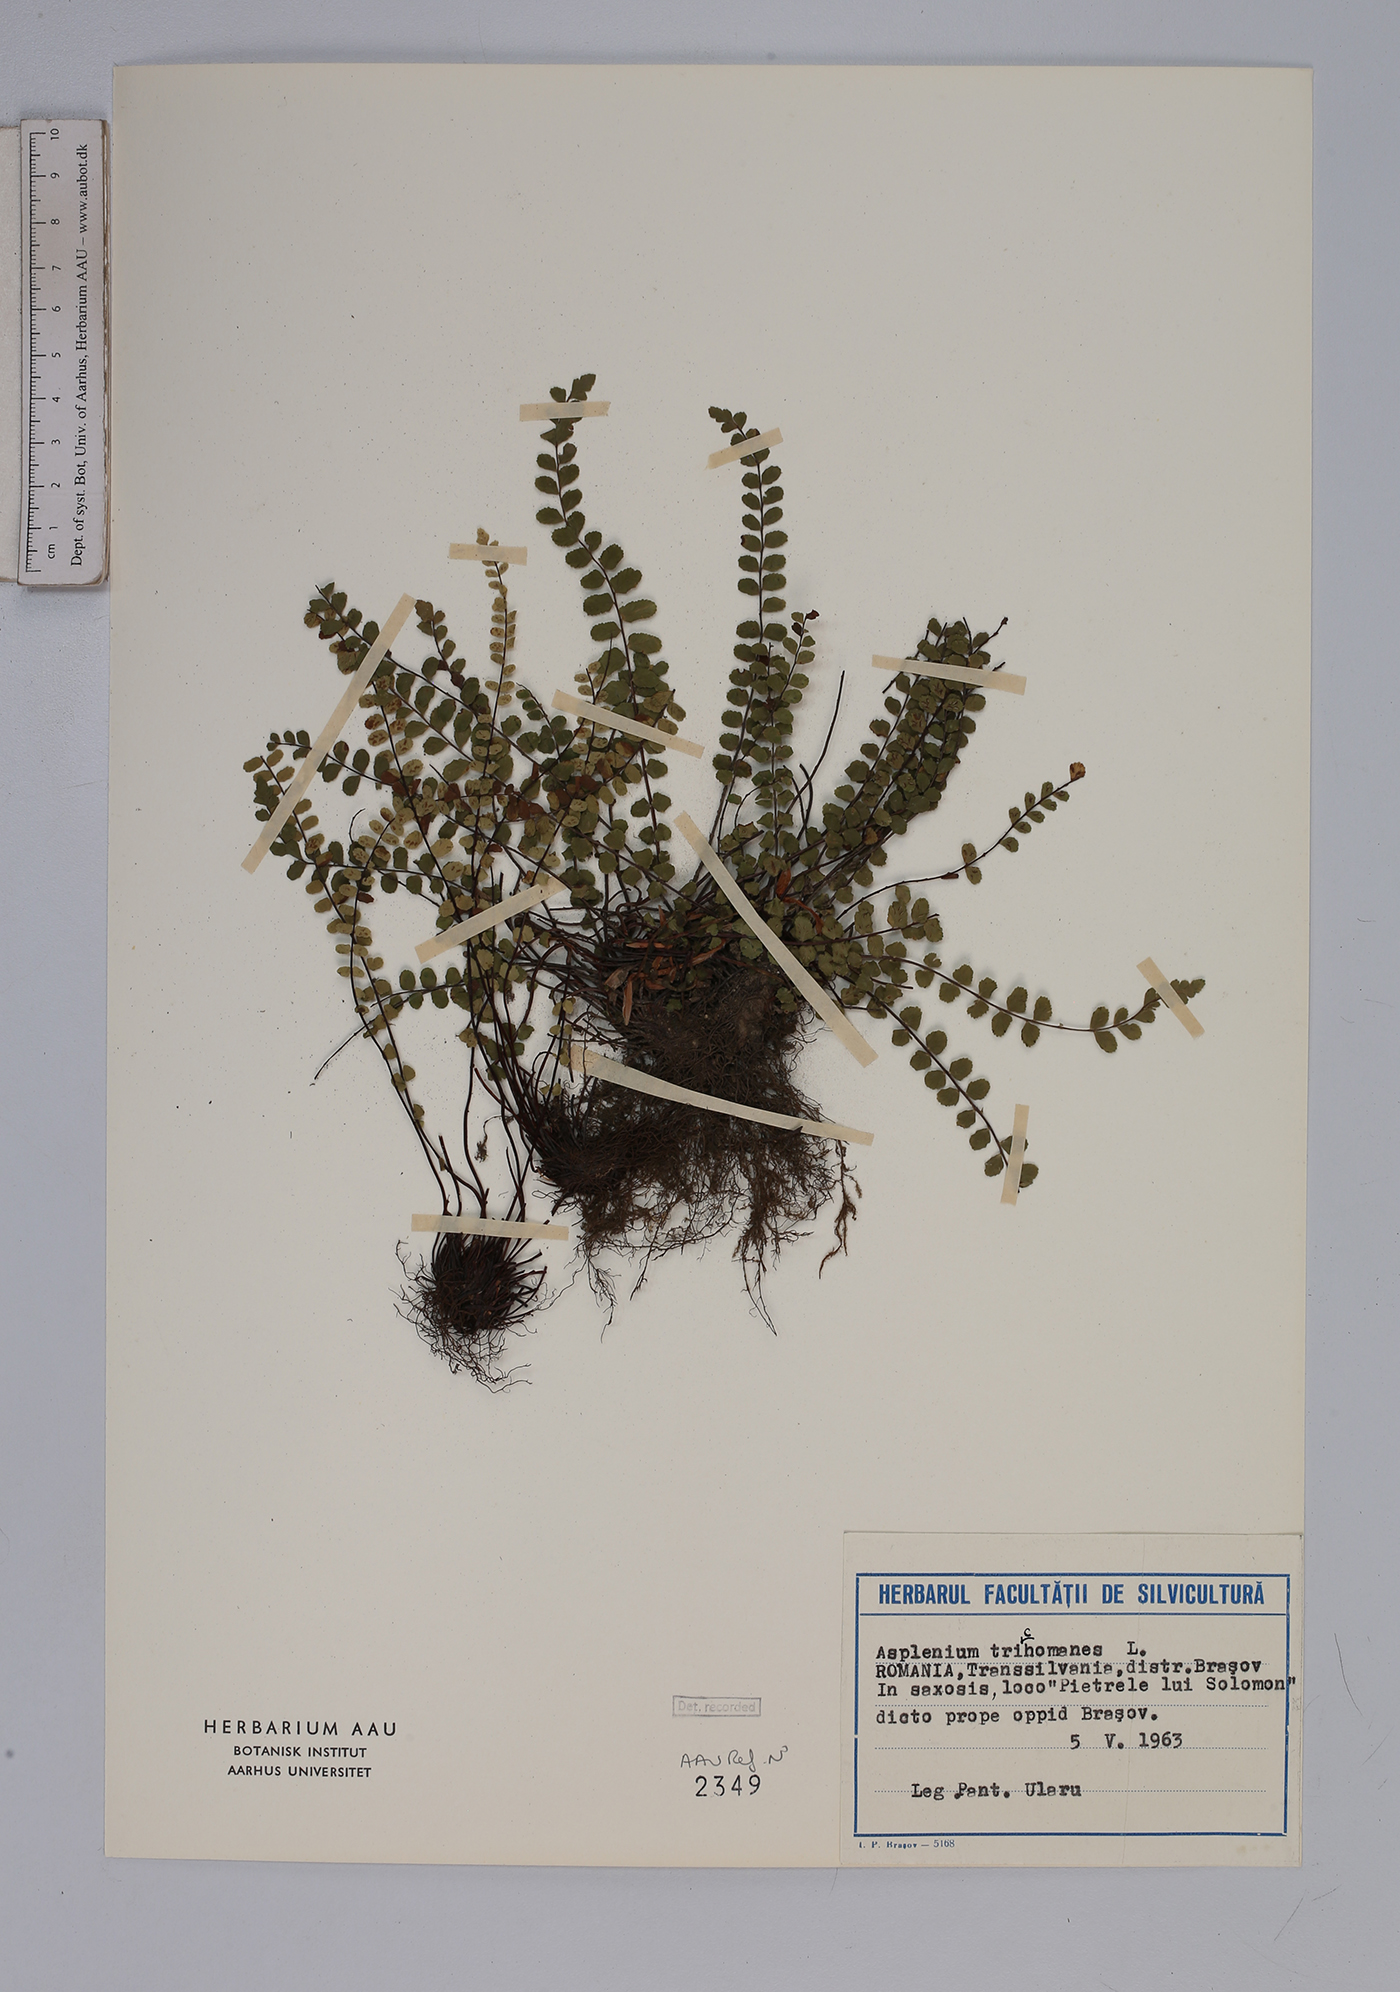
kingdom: Plantae
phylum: Tracheophyta
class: Polypodiopsida
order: Polypodiales
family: Aspleniaceae
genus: Asplenium
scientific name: Asplenium trichomanes
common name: Maidenhair spleenwort
